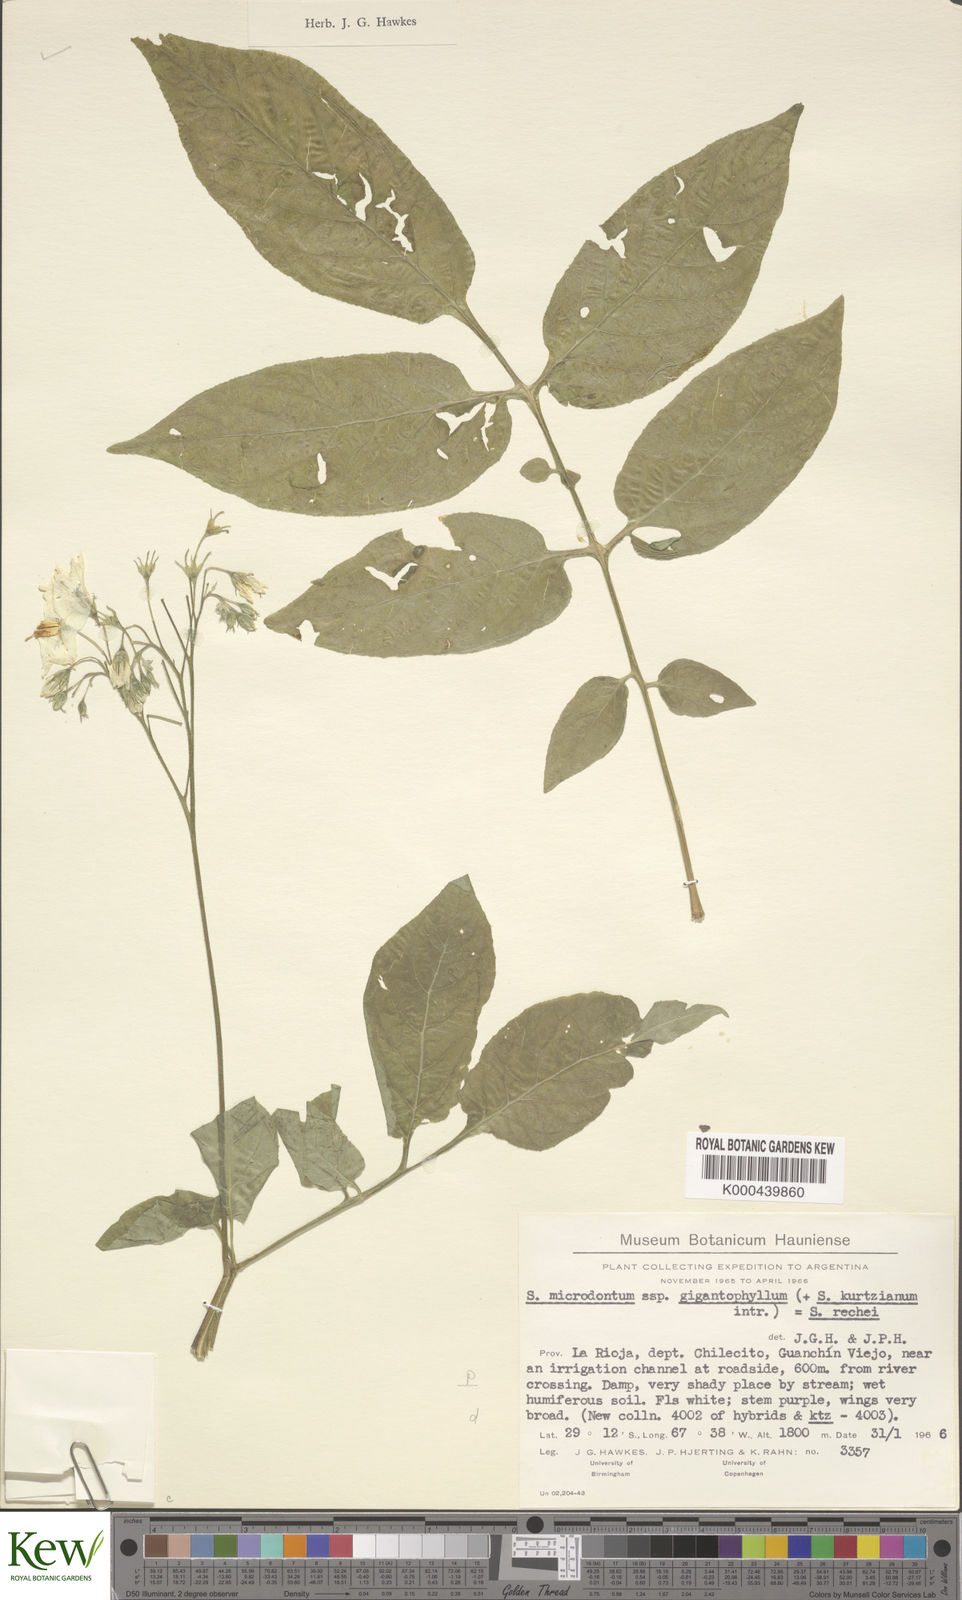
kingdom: Plantae
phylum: Tracheophyta
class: Magnoliopsida
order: Solanales
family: Solanaceae
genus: Solanum
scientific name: Solanum microdontum
